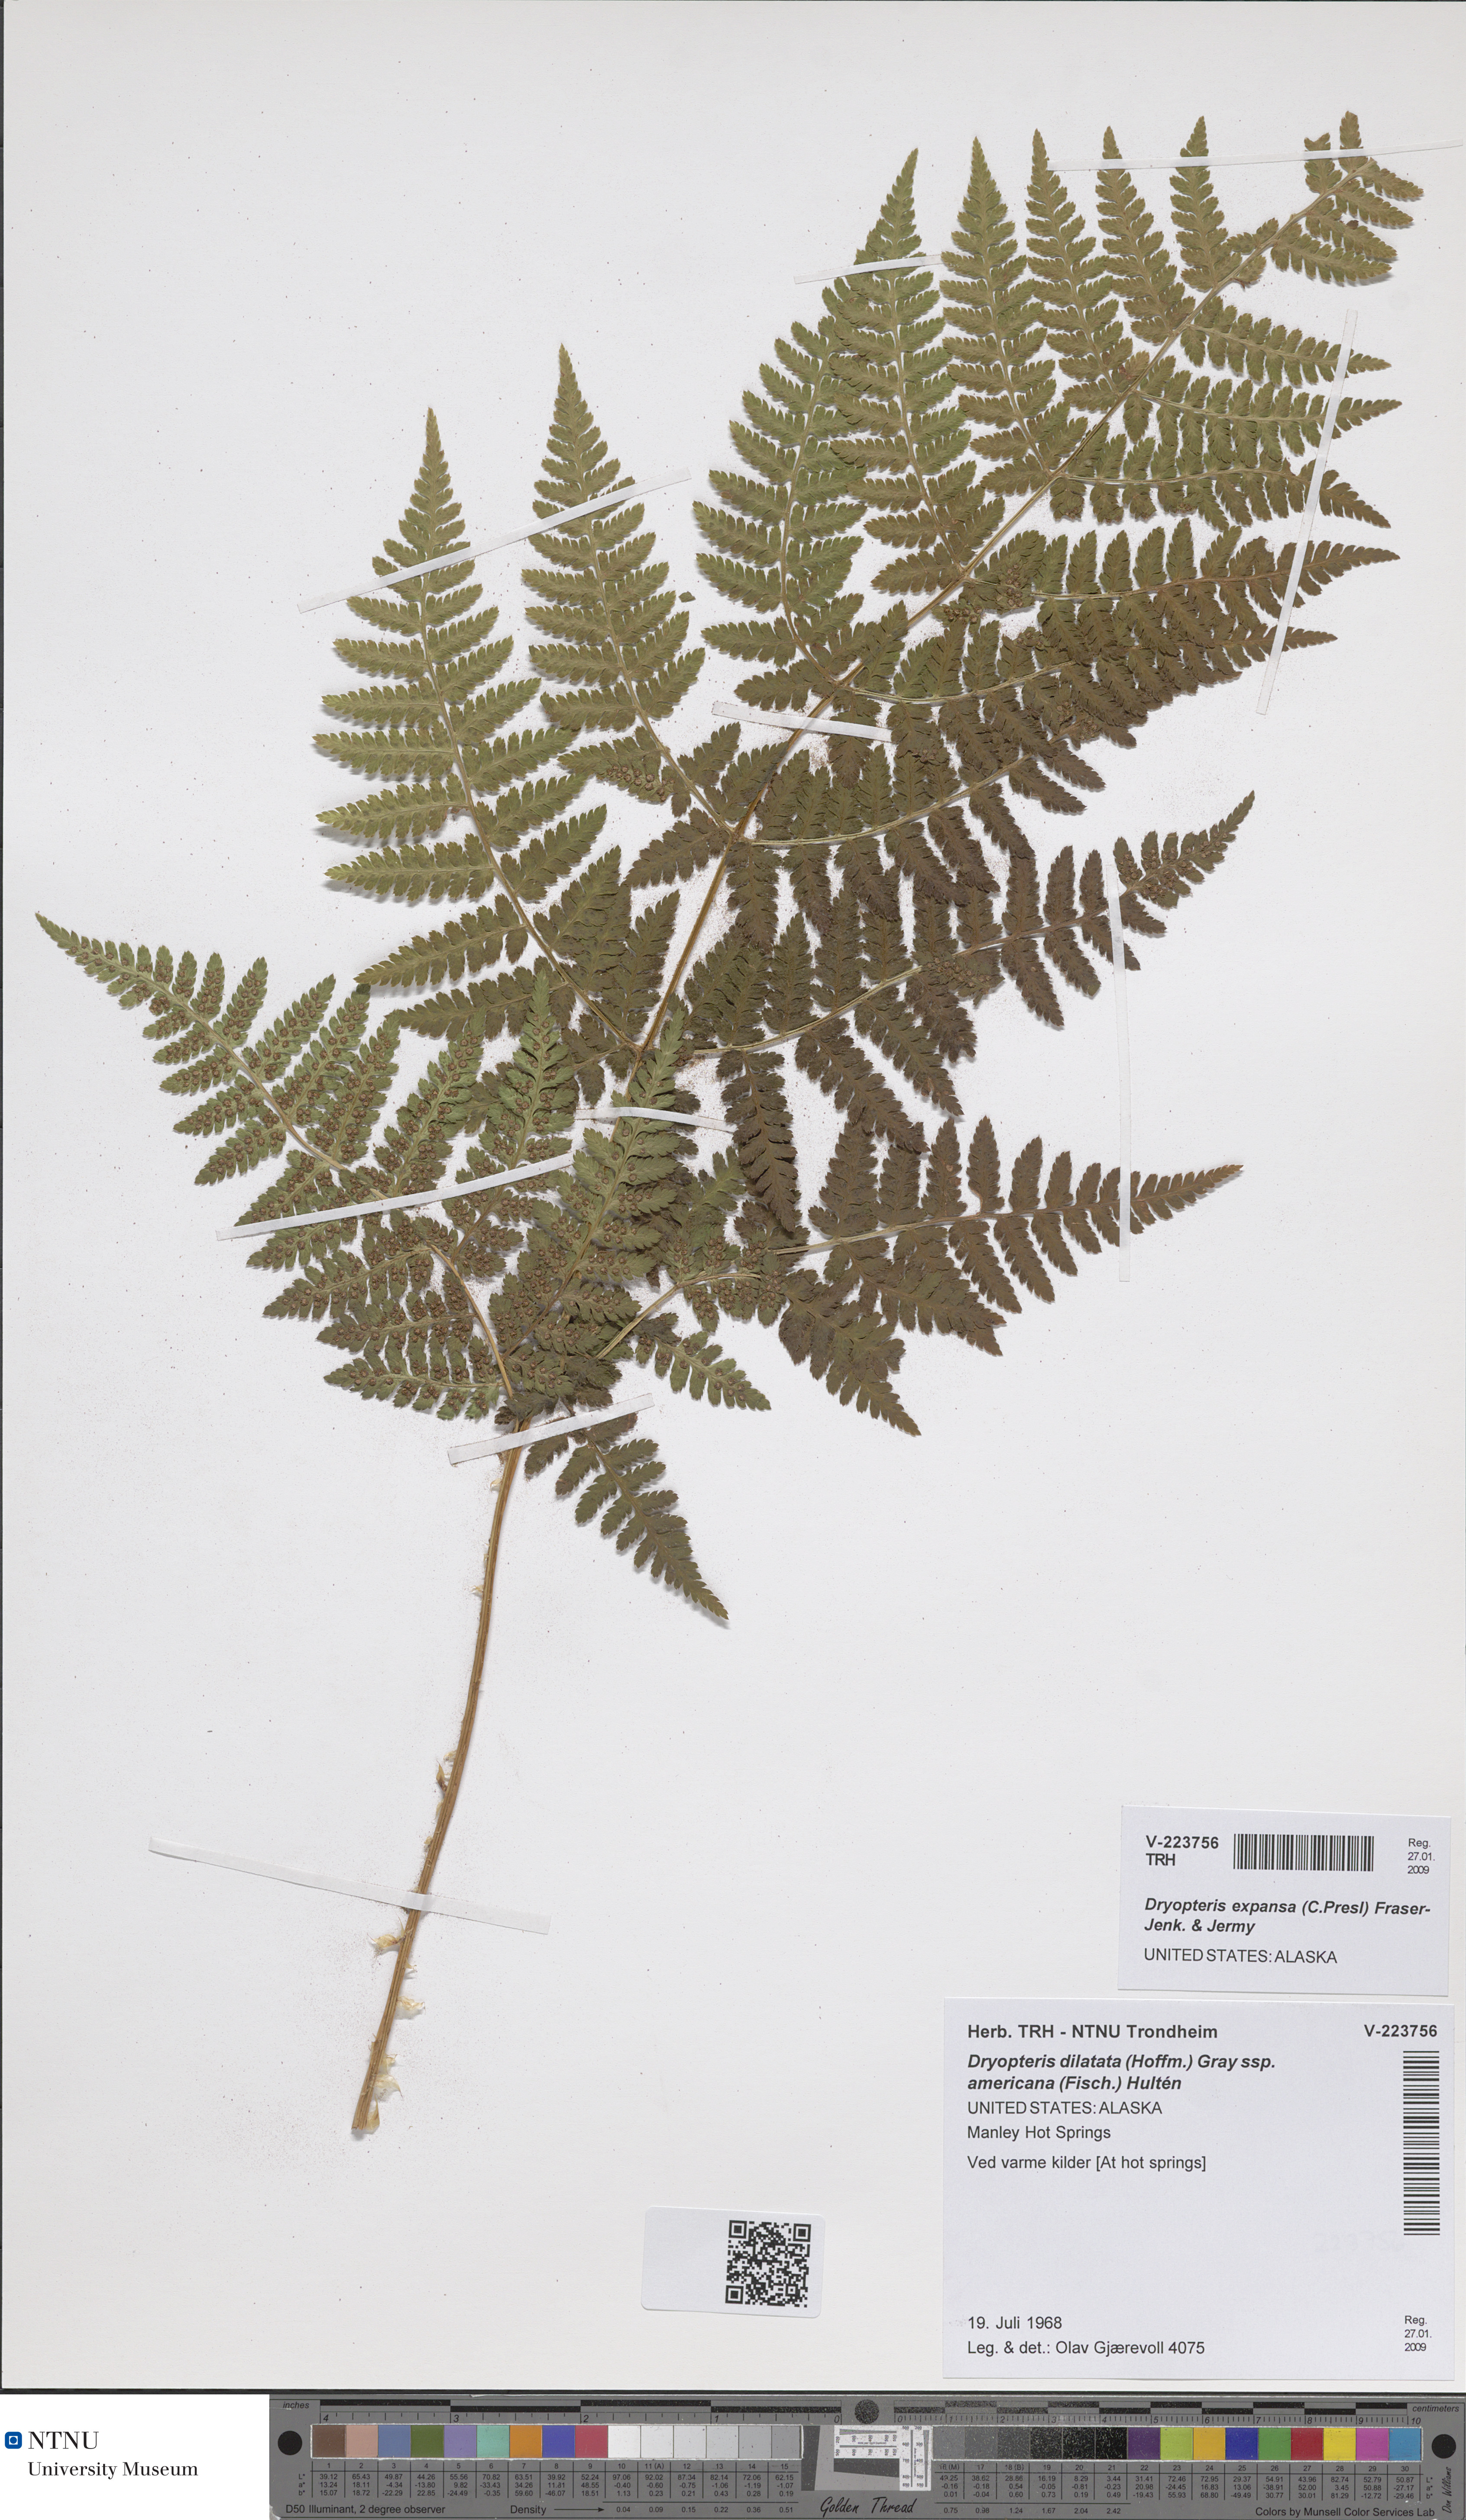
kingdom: Plantae
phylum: Tracheophyta
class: Polypodiopsida
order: Polypodiales
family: Dryopteridaceae
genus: Dryopteris
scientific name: Dryopteris expansa
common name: Northern buckler fern
